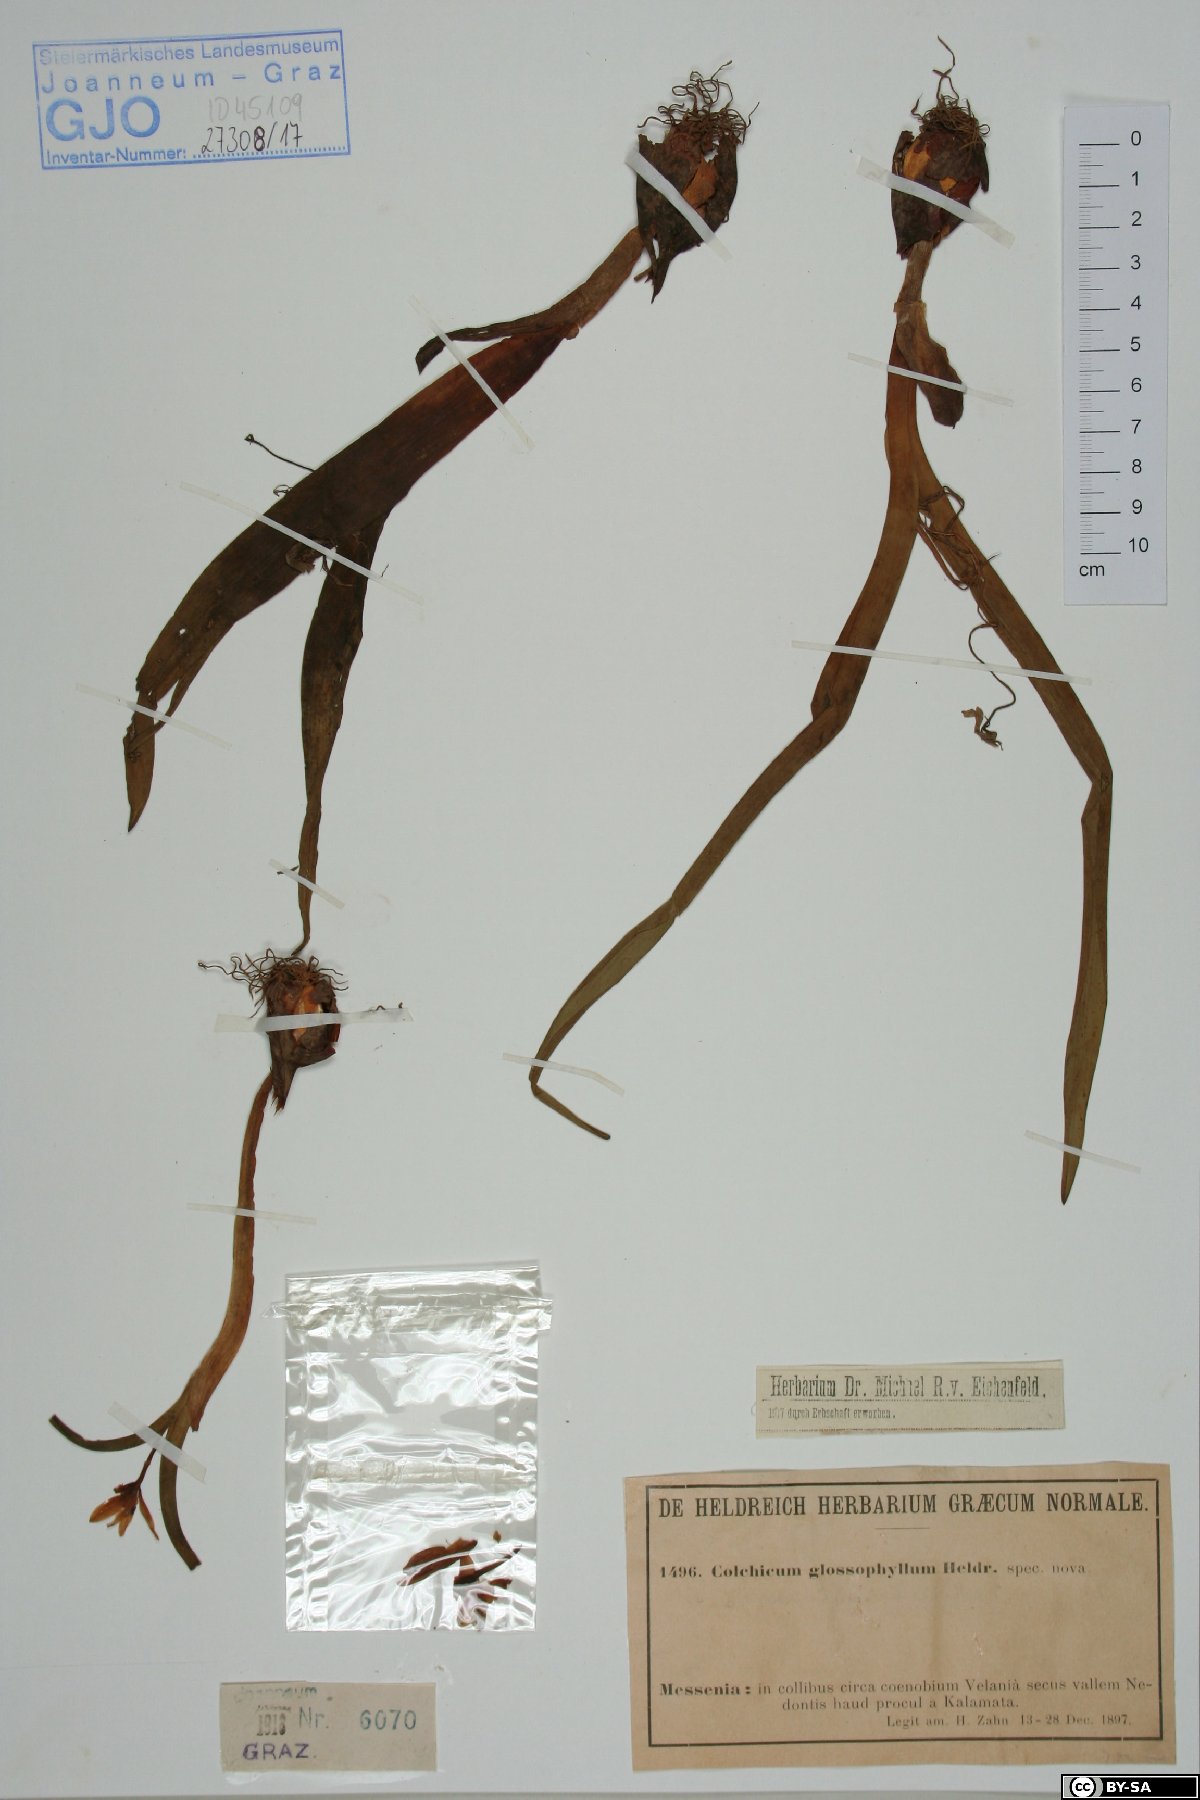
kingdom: Plantae
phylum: Tracheophyta
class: Liliopsida
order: Liliales
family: Colchicaceae
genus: Colchicum
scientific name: Colchicum cupanii
